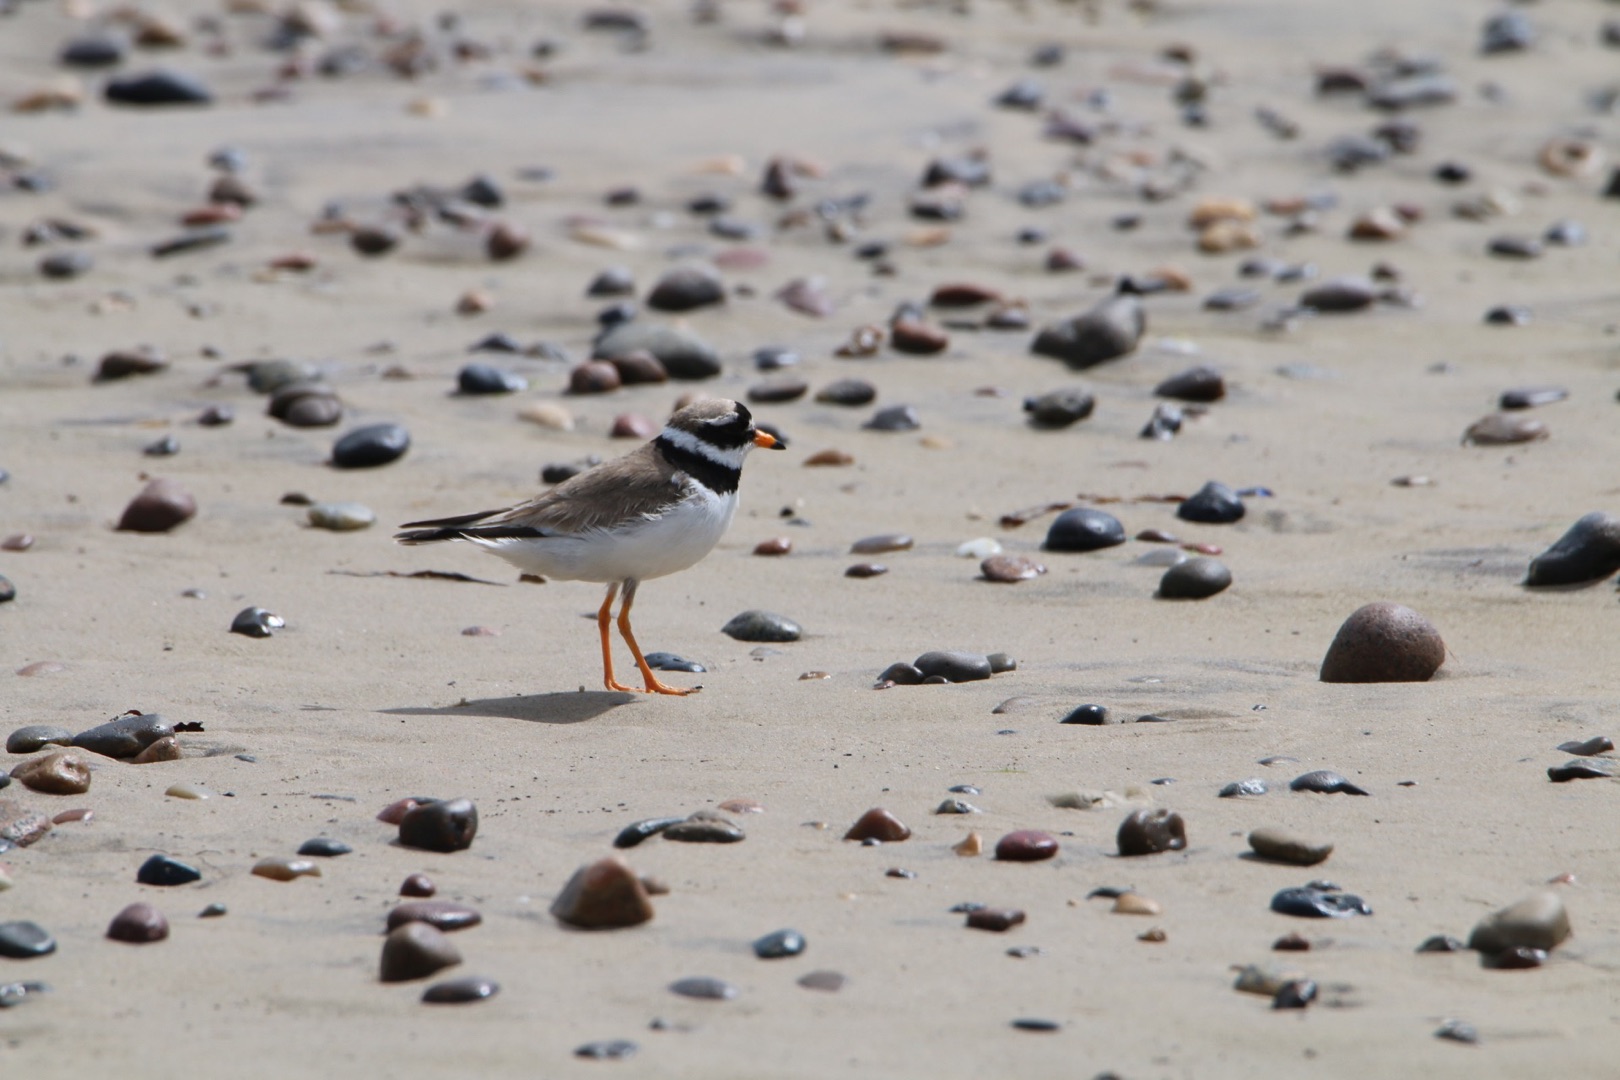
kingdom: Animalia
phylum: Chordata
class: Aves
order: Charadriiformes
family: Charadriidae
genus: Charadrius
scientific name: Charadrius hiaticula
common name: Stor præstekrave
